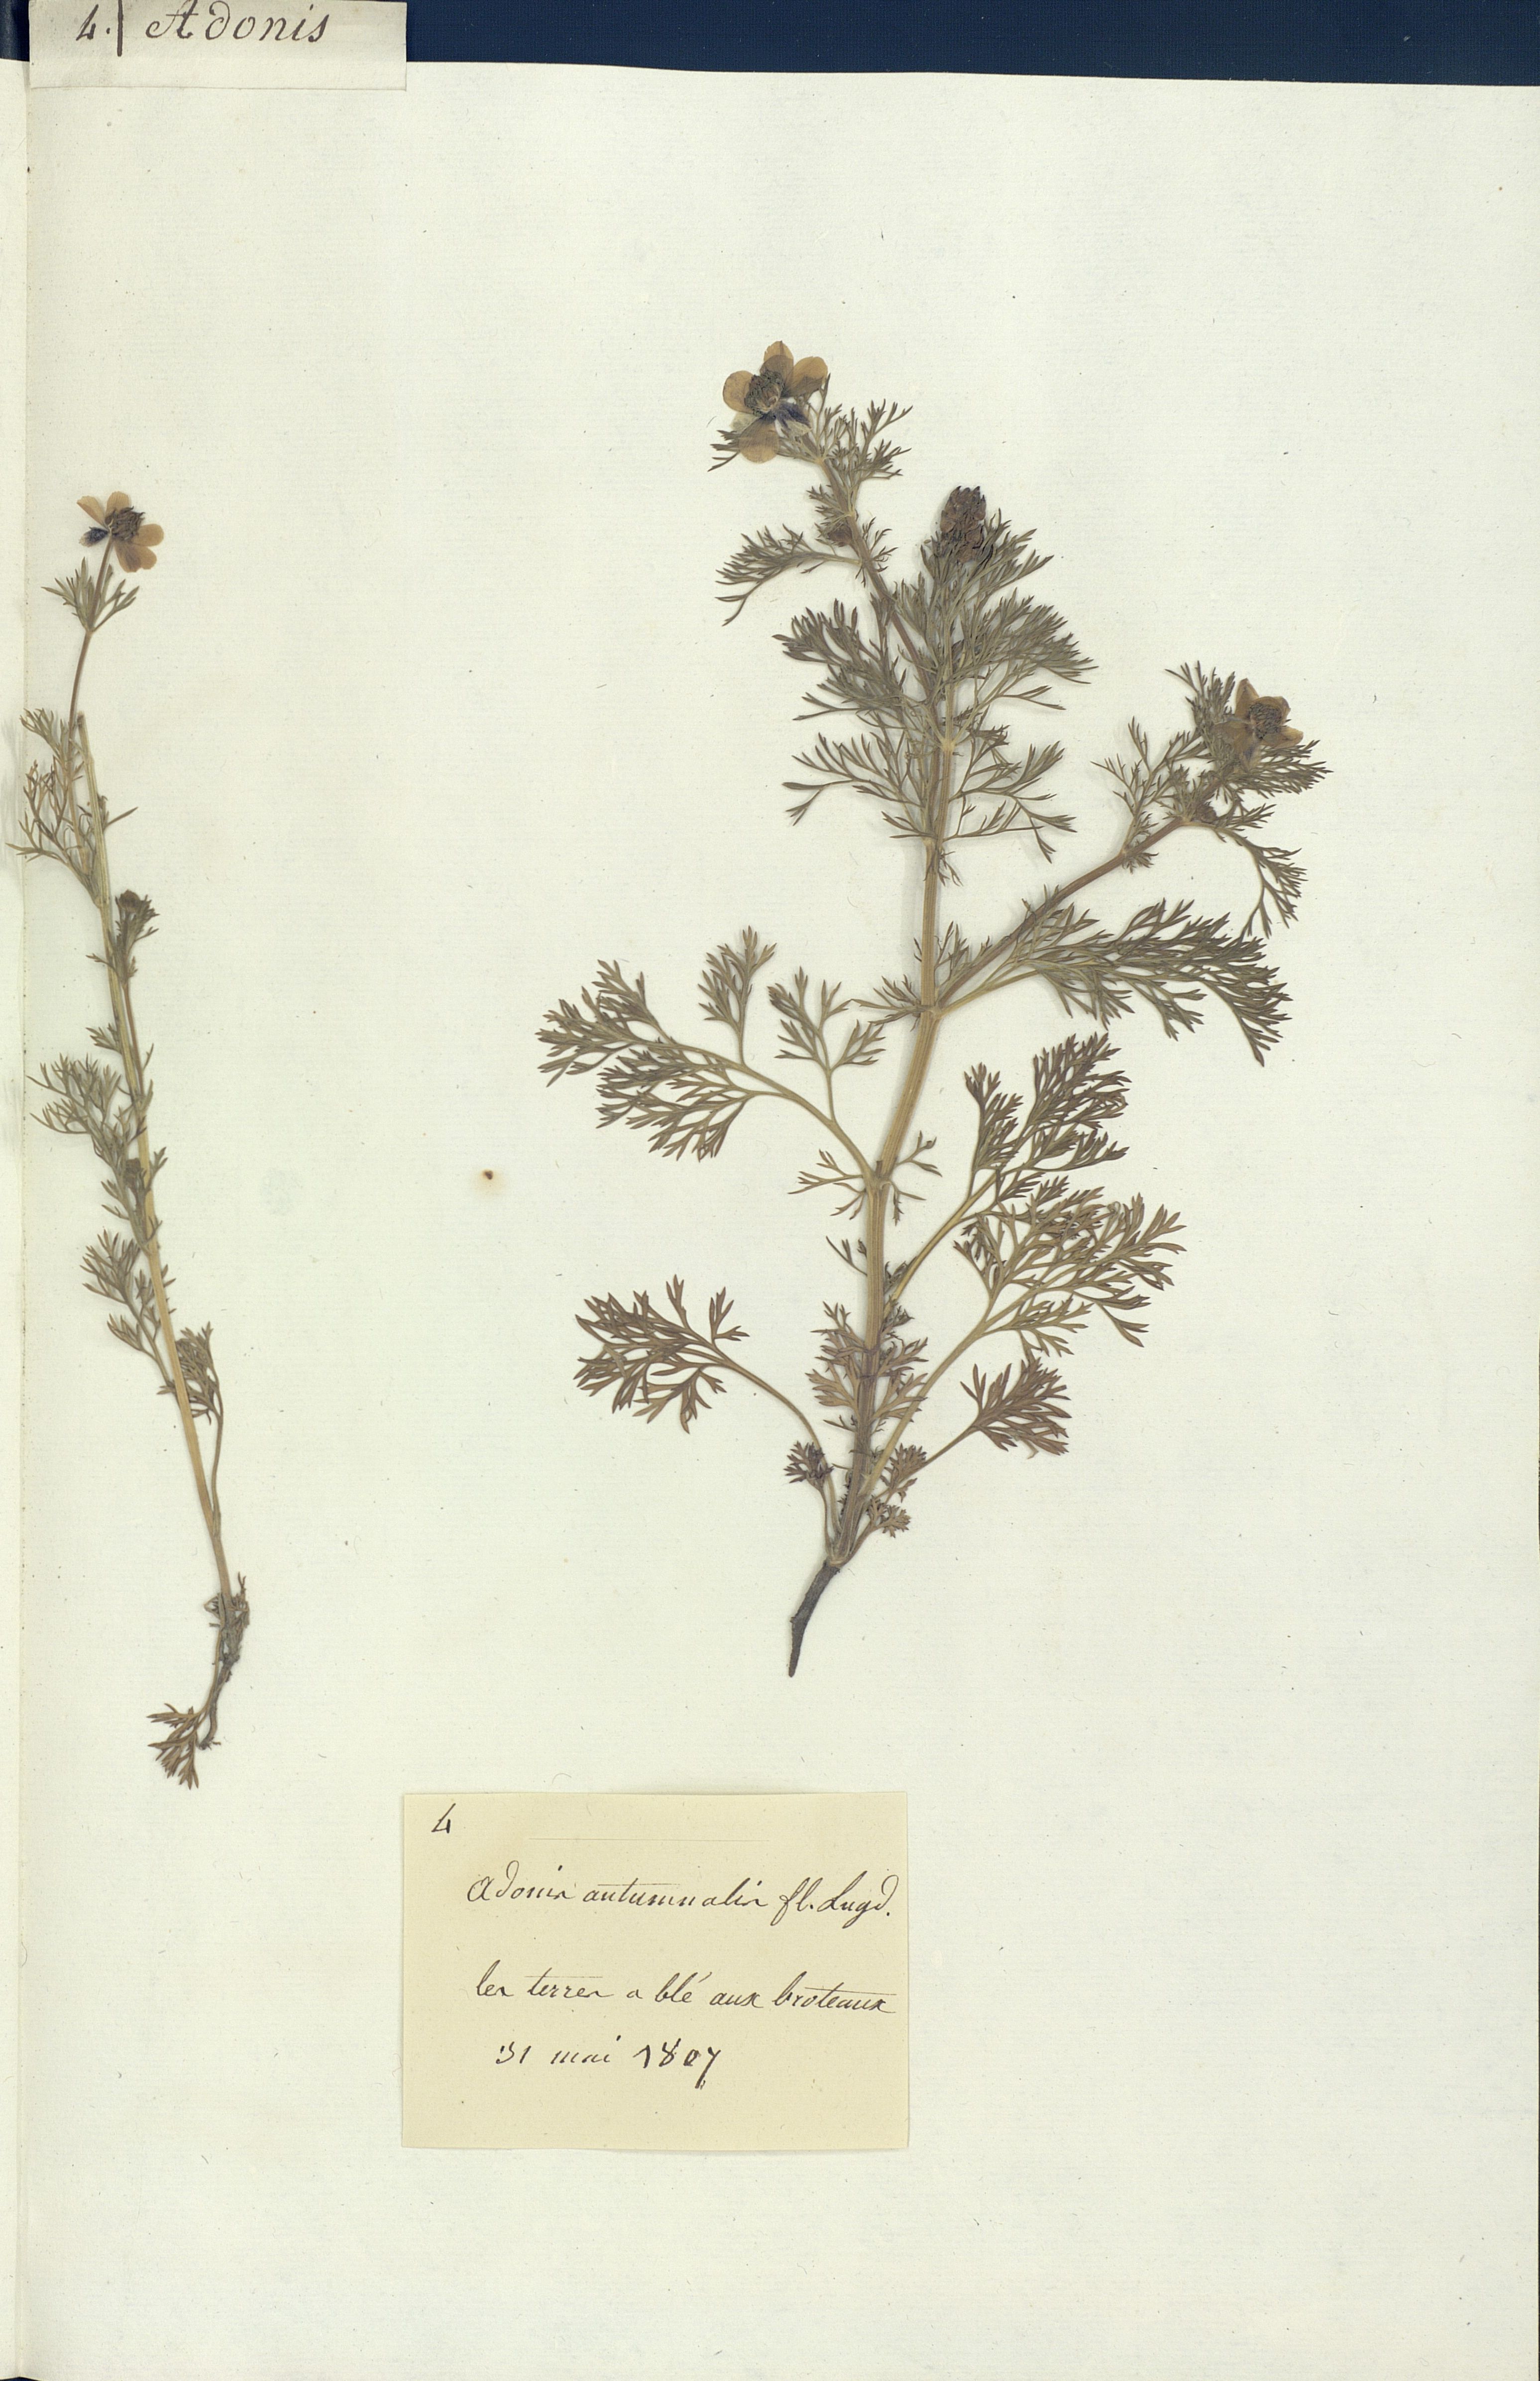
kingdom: Plantae
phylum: Tracheophyta
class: Magnoliopsida
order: Ranunculales
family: Ranunculaceae
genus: Adonis
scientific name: Adonis
